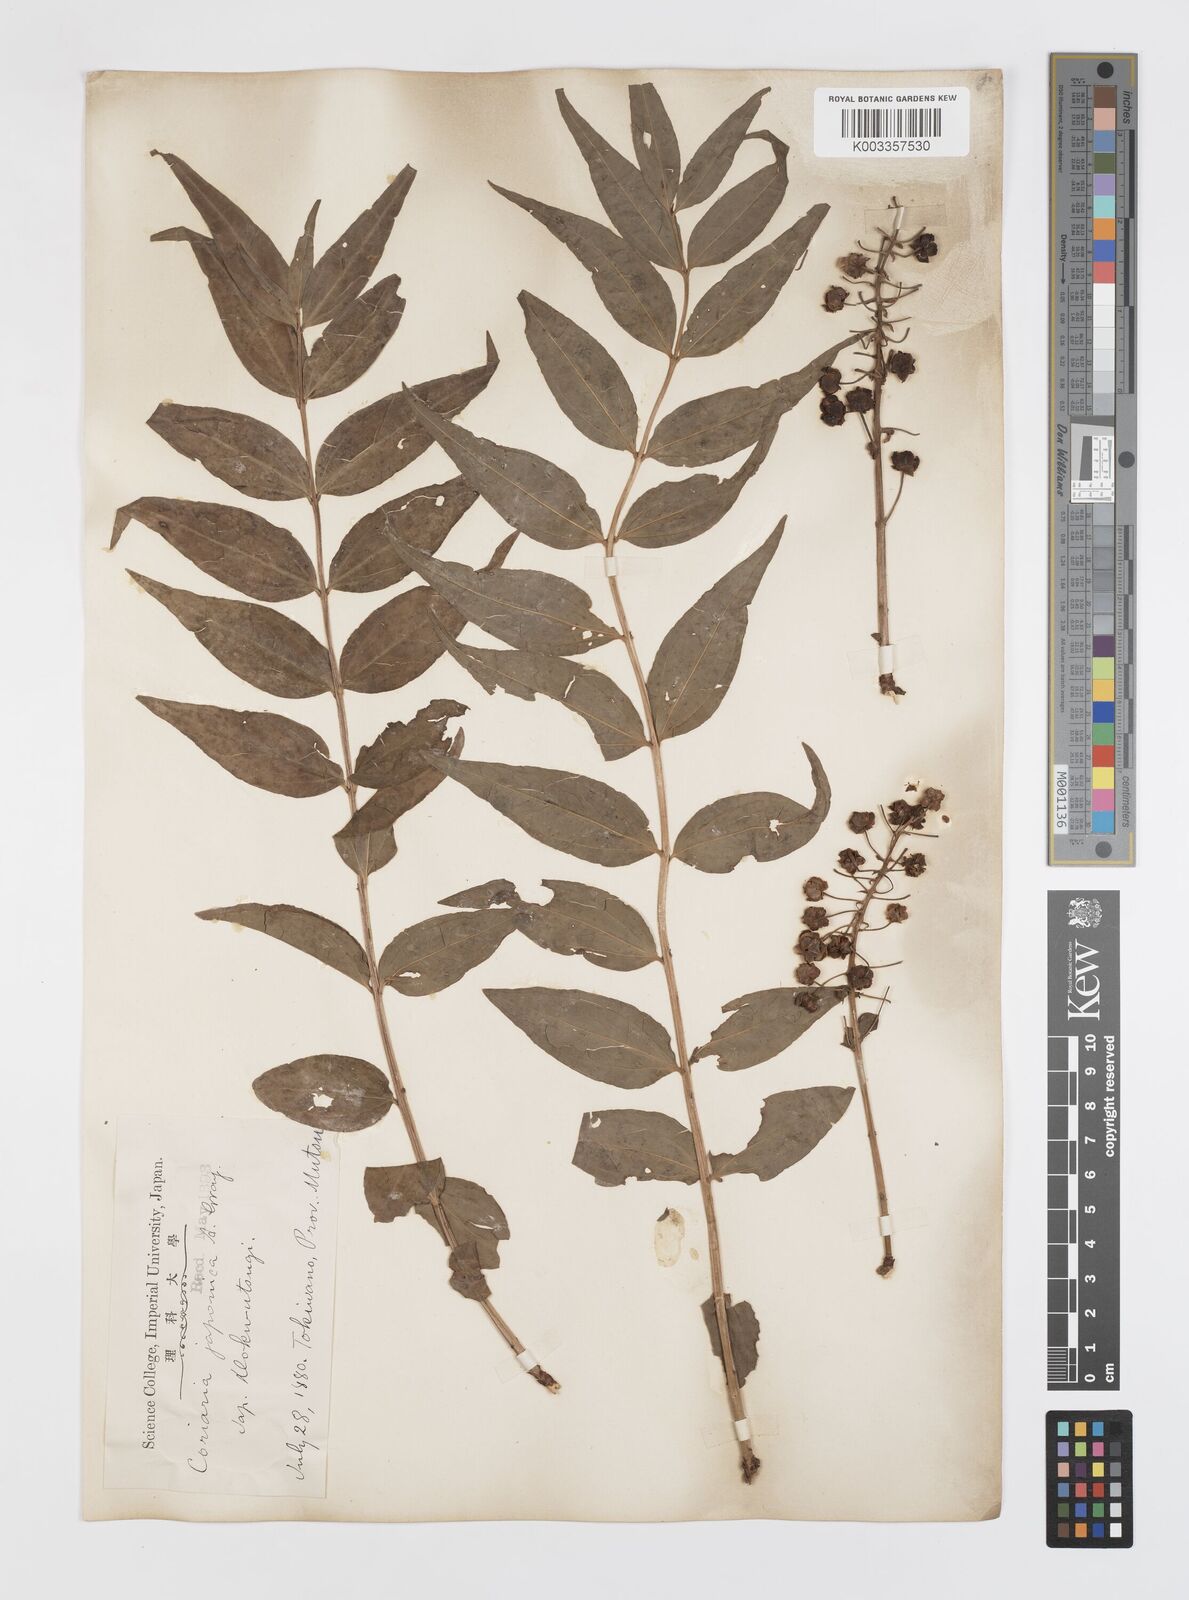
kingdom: Plantae
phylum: Tracheophyta
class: Magnoliopsida
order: Cucurbitales
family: Coriariaceae
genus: Coriaria
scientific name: Coriaria japonica
